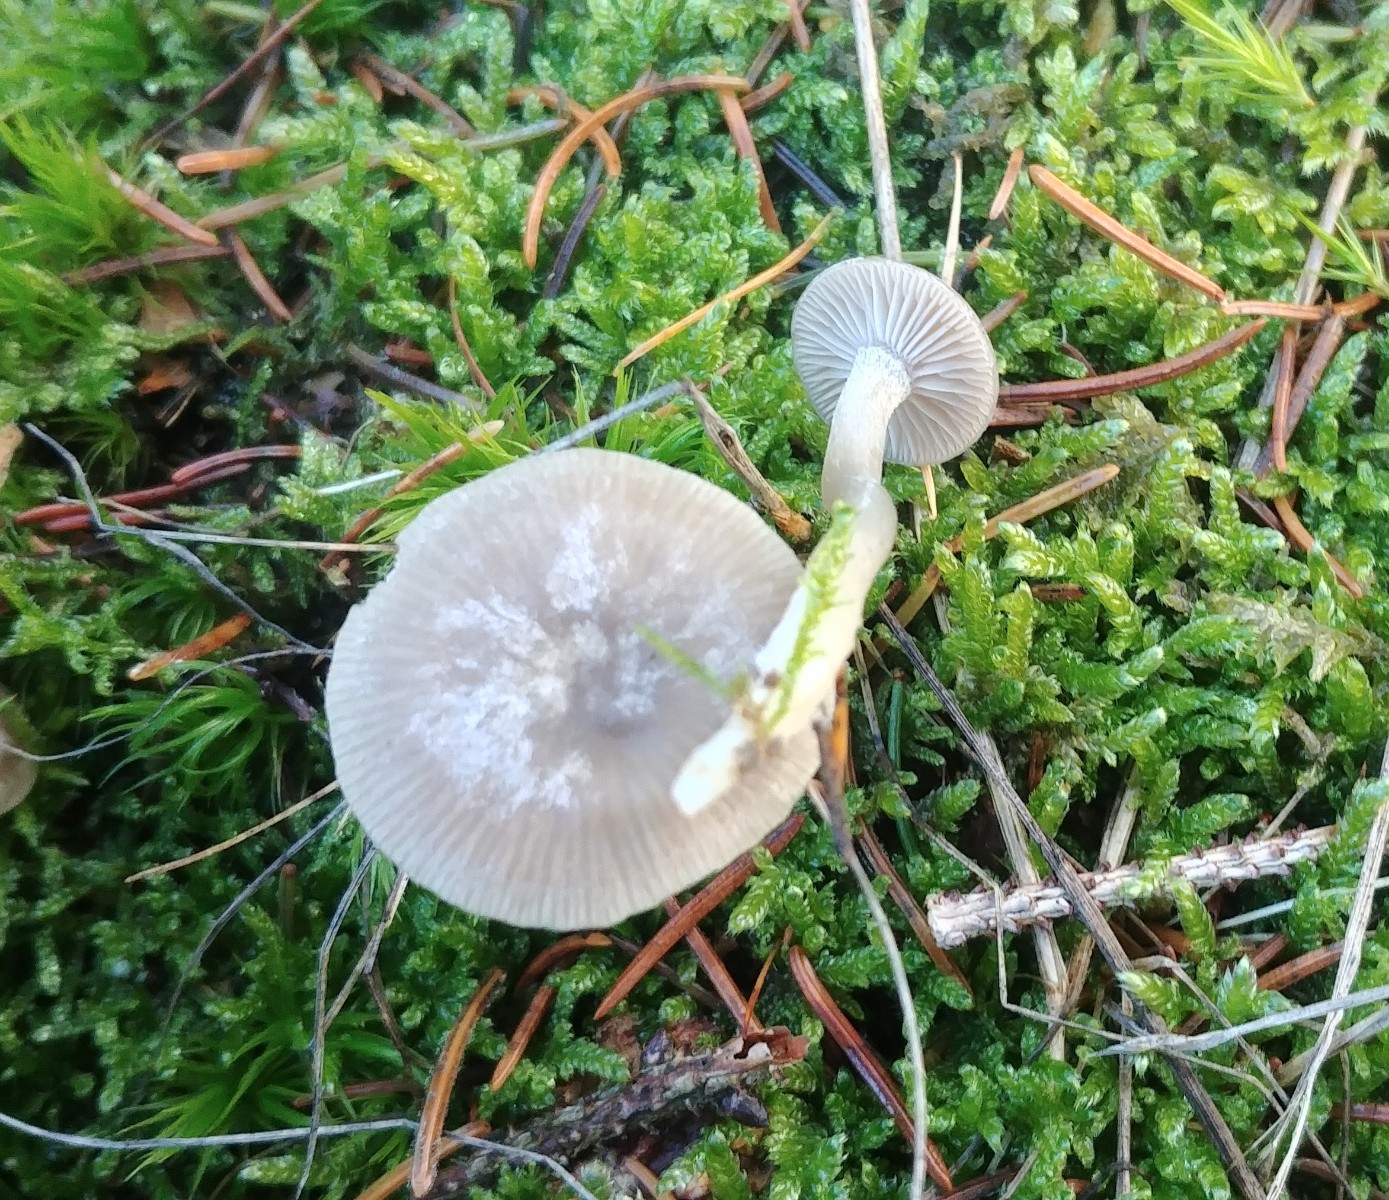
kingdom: Fungi
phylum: Basidiomycota
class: Agaricomycetes
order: Agaricales
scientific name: Agaricales
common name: champignonordenen
